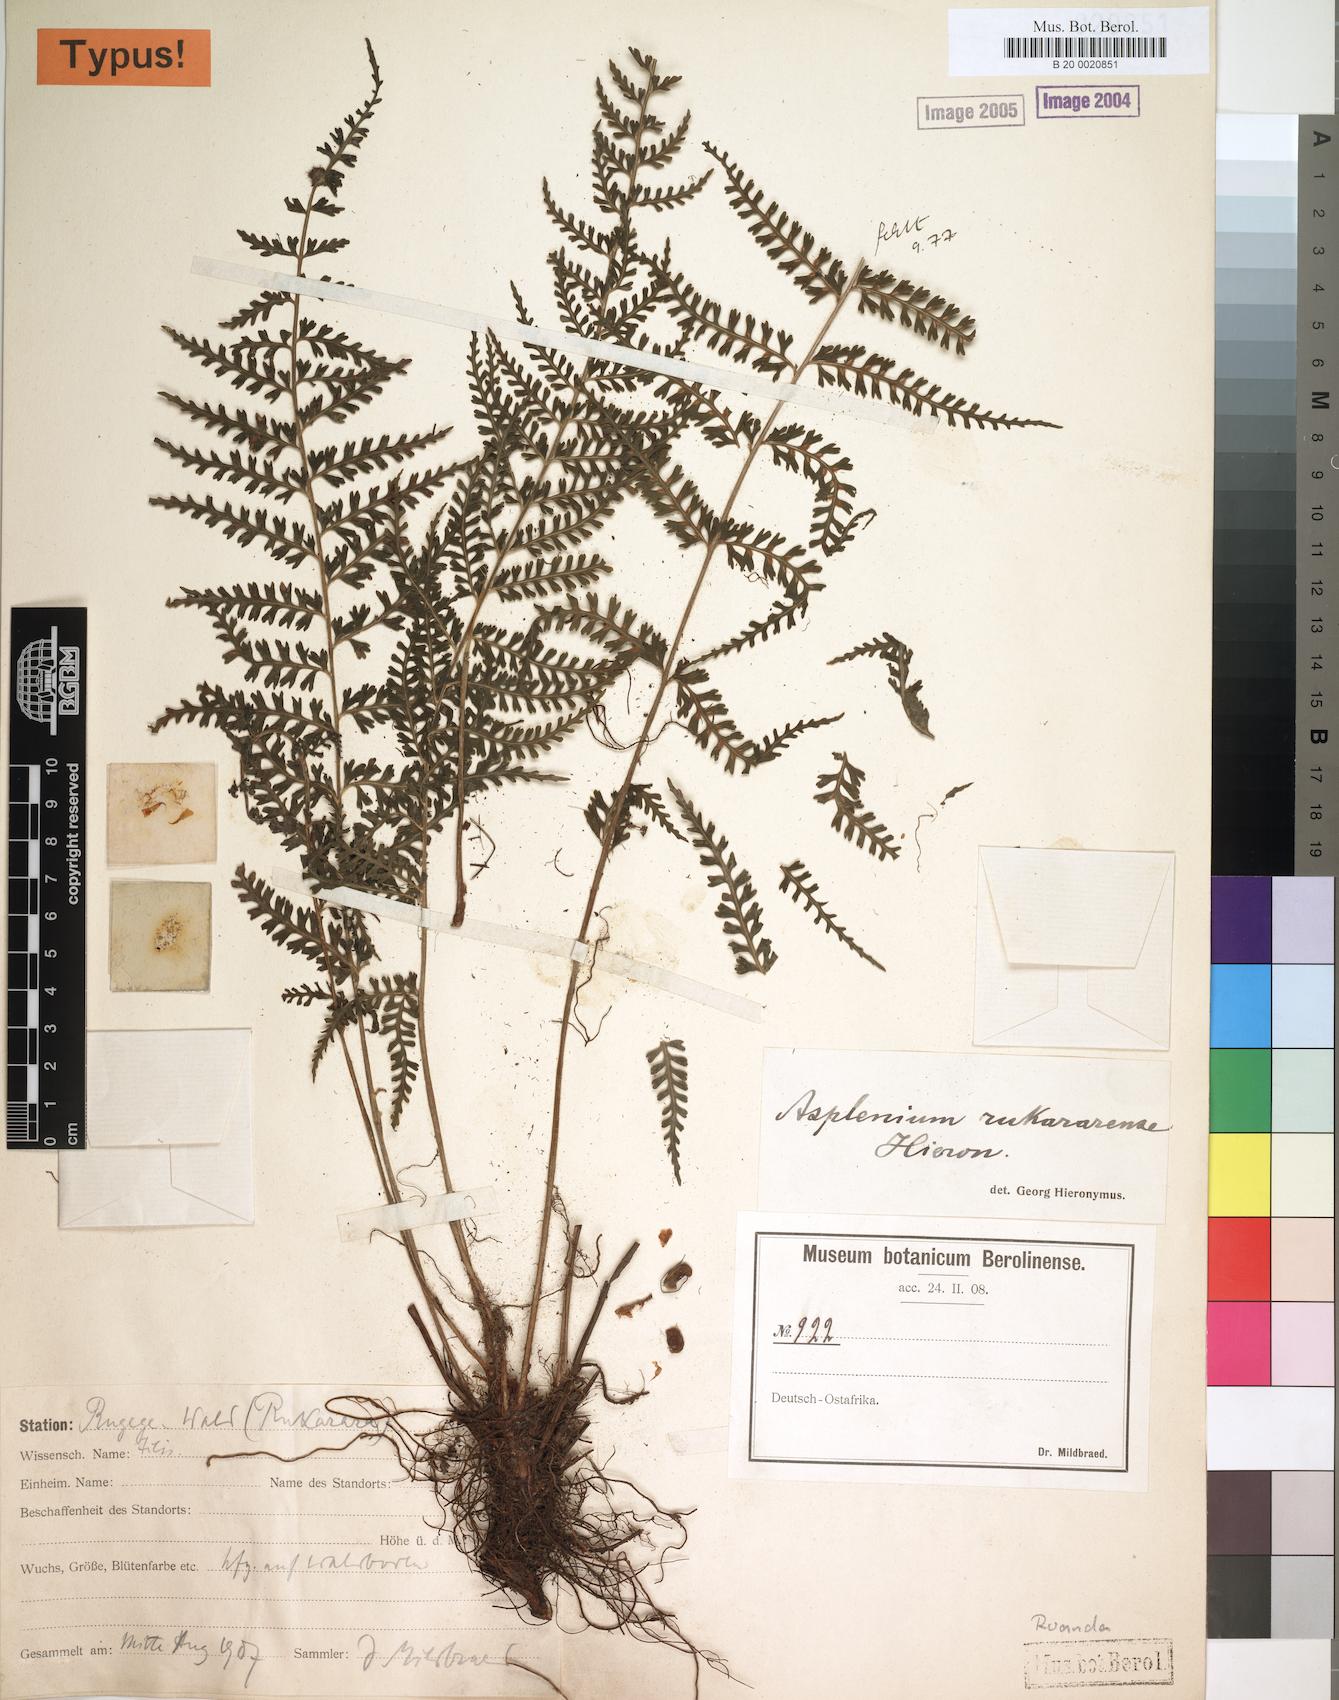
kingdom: Plantae
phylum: Tracheophyta
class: Polypodiopsida
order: Polypodiales
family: Aspleniaceae
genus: Asplenium
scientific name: Asplenium rukaraense
